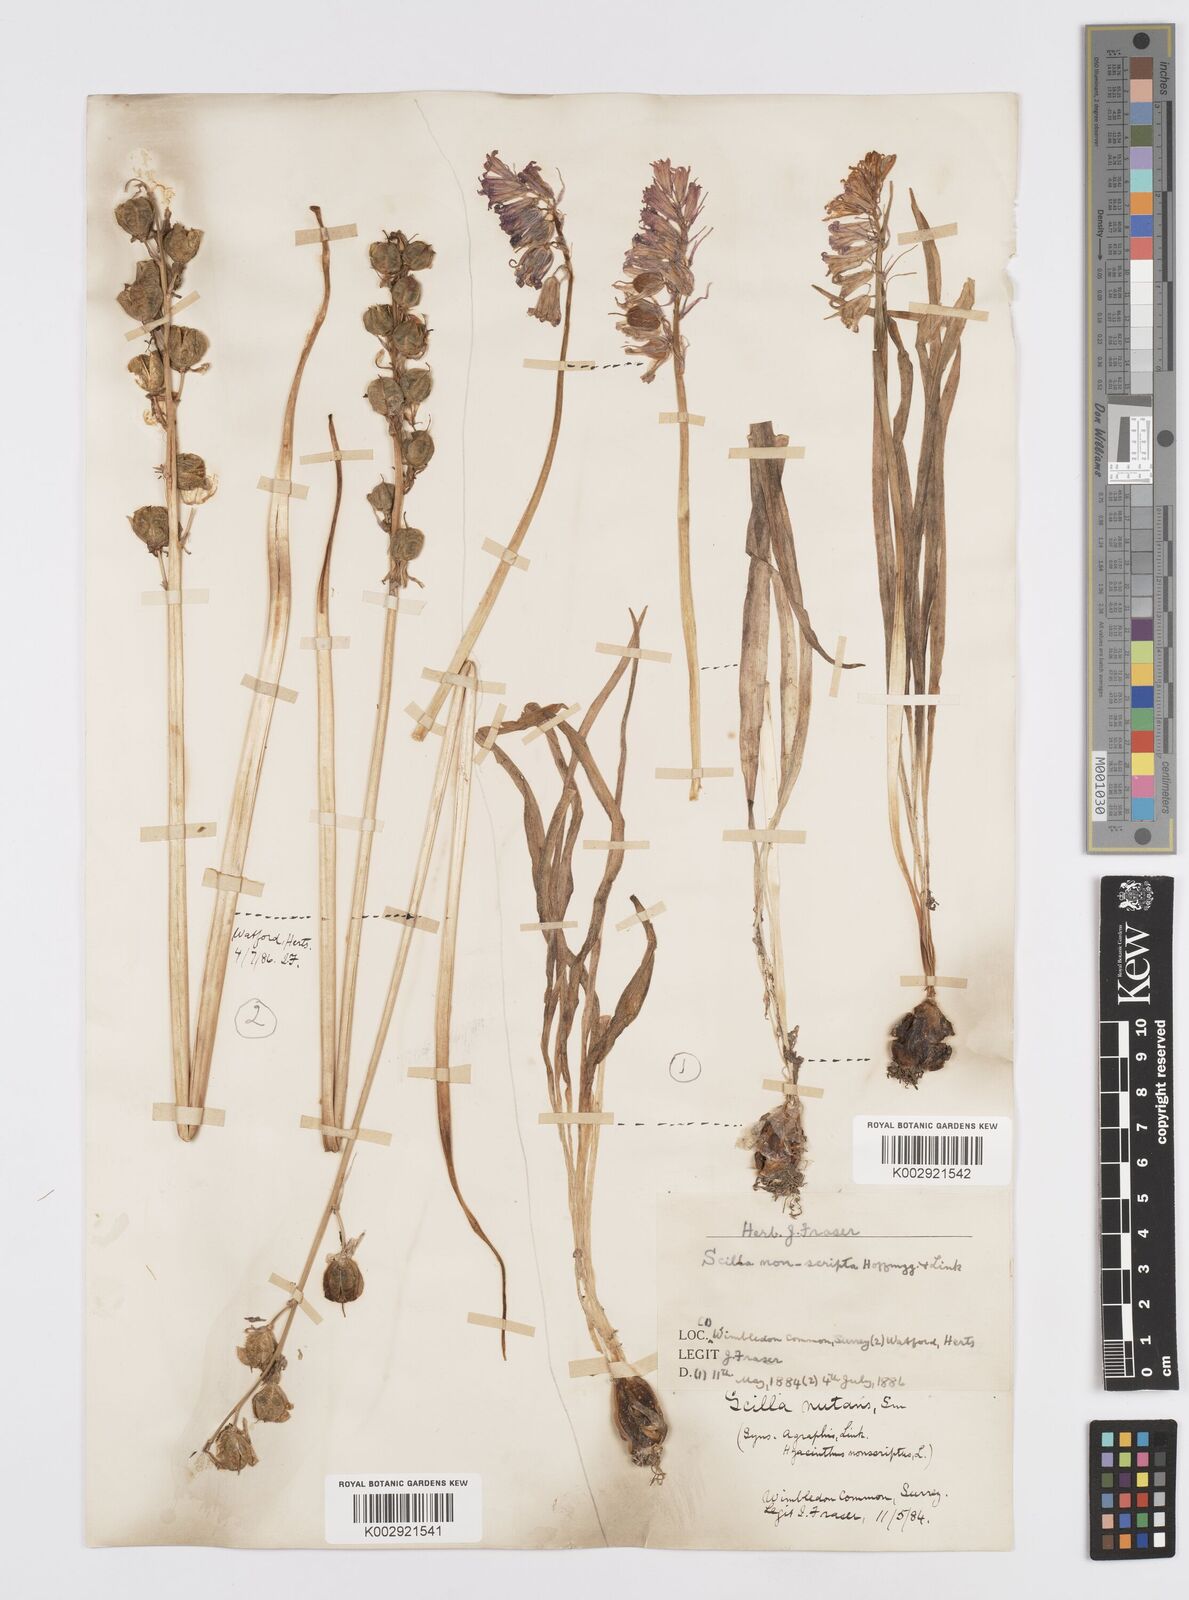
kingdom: Plantae
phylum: Tracheophyta
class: Liliopsida
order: Asparagales
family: Asparagaceae
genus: Hyacinthoides
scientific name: Hyacinthoides non-scripta
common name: Bluebell
